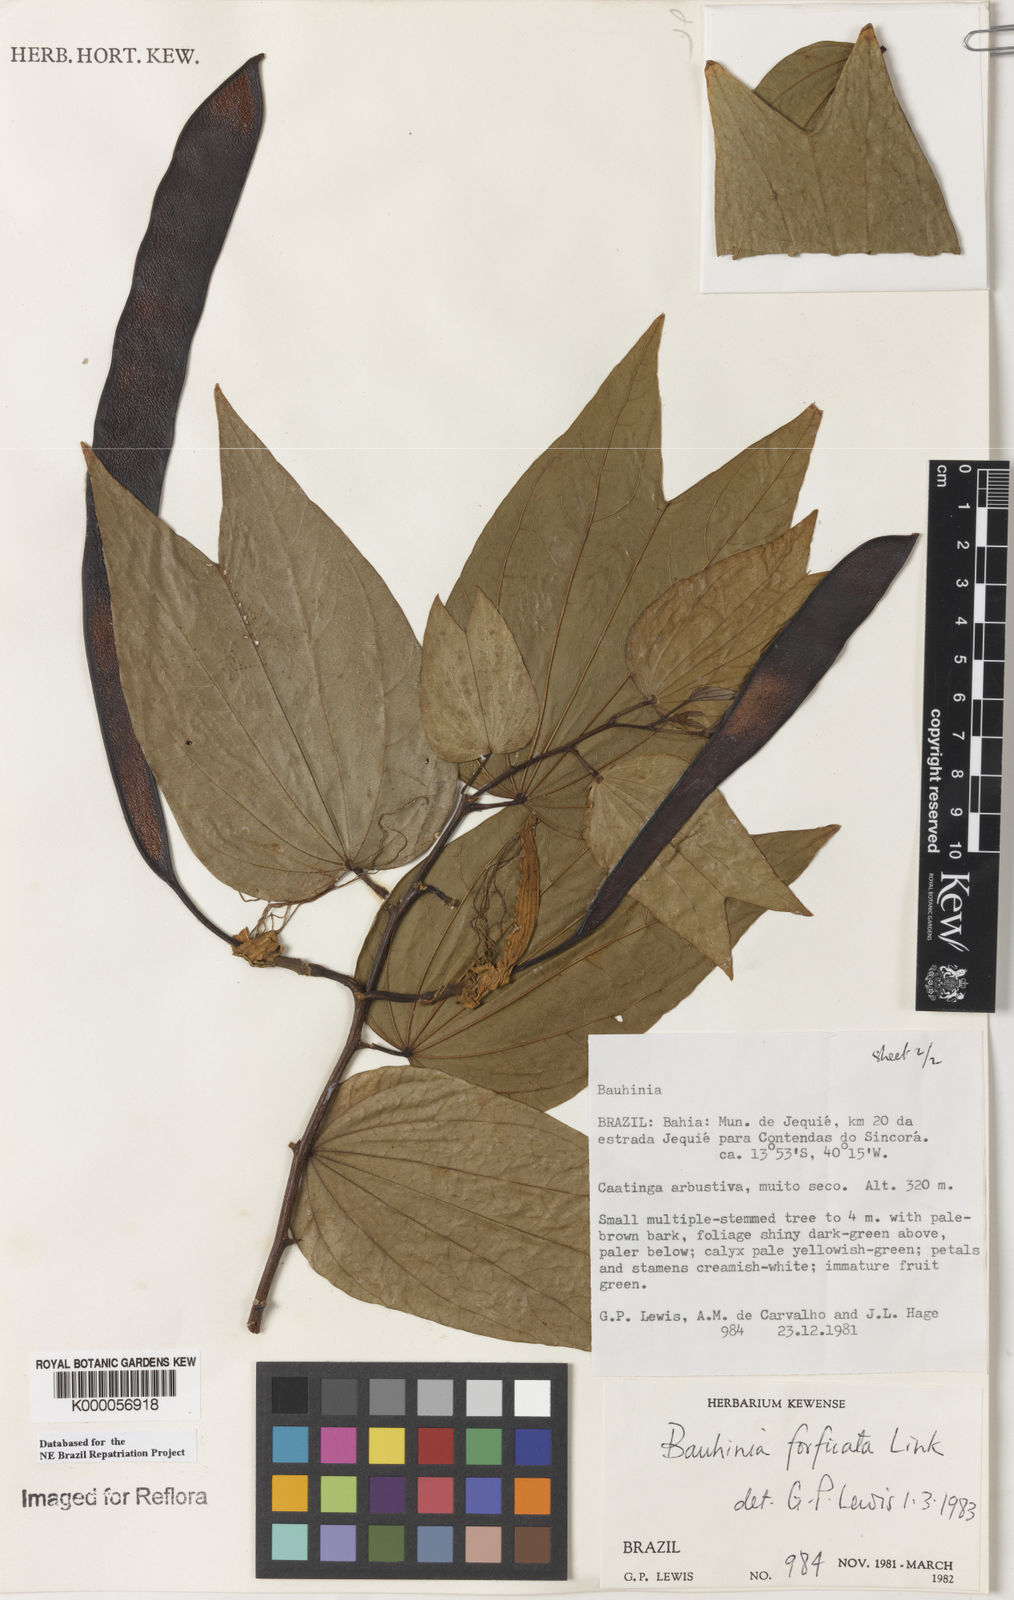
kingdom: Plantae
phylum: Tracheophyta
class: Magnoliopsida
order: Fabales
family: Fabaceae
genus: Bauhinia
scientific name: Bauhinia forficata
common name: Orchid tree
